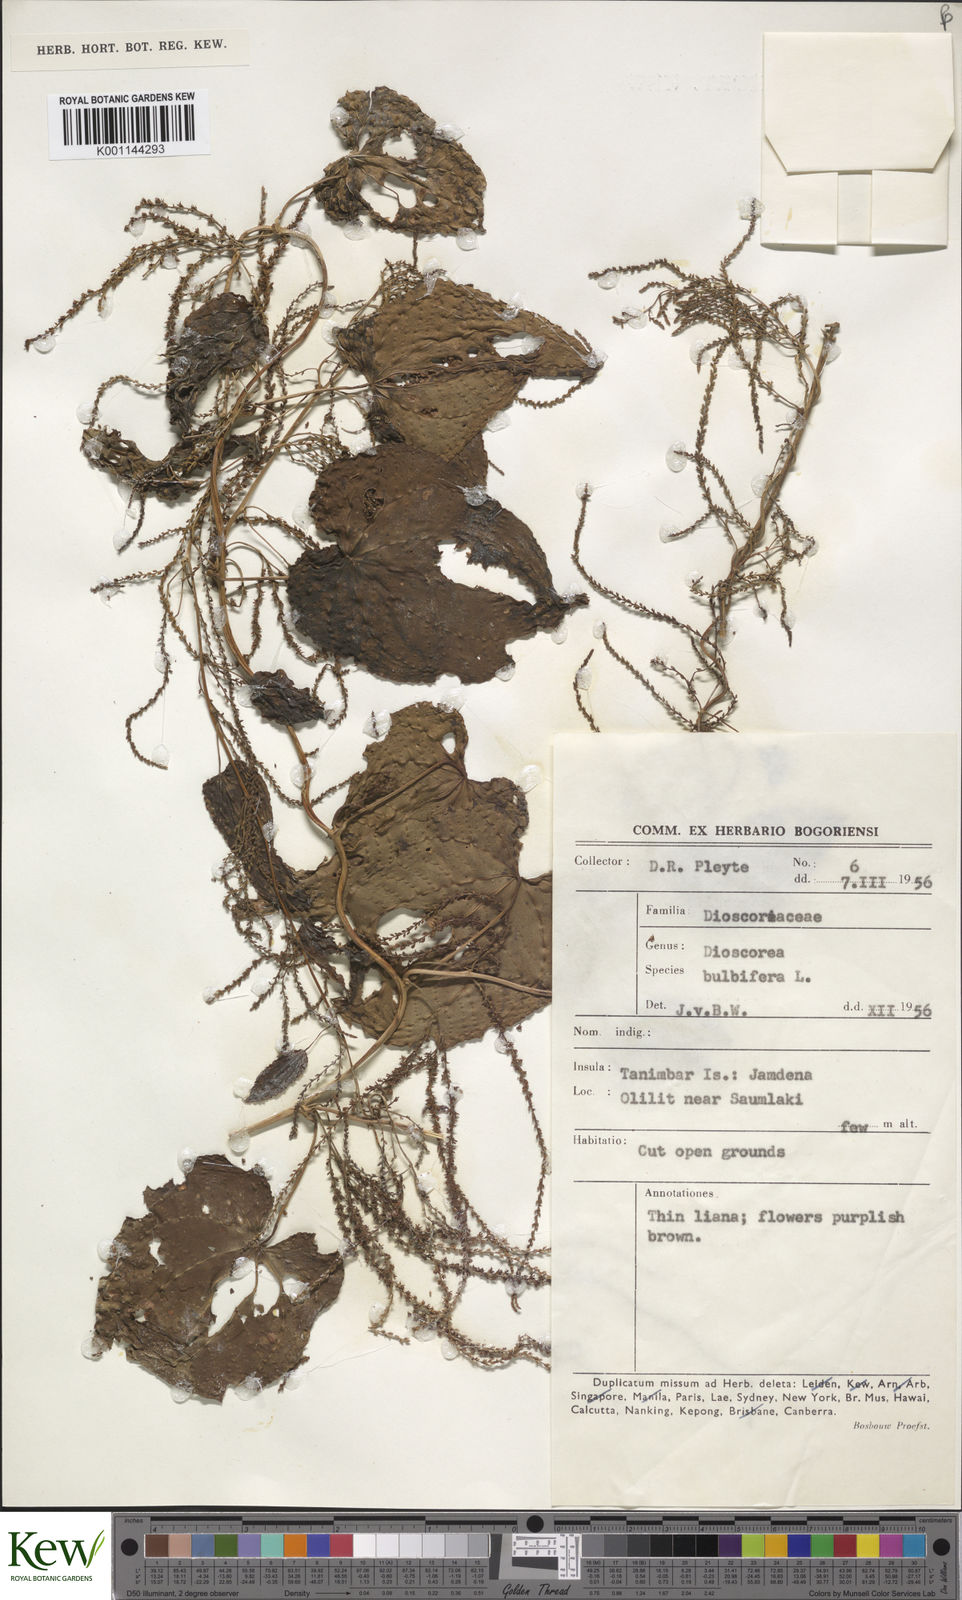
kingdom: Plantae
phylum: Tracheophyta
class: Liliopsida
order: Dioscoreales
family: Dioscoreaceae
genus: Dioscorea
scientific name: Dioscorea bulbifera
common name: Air yam
